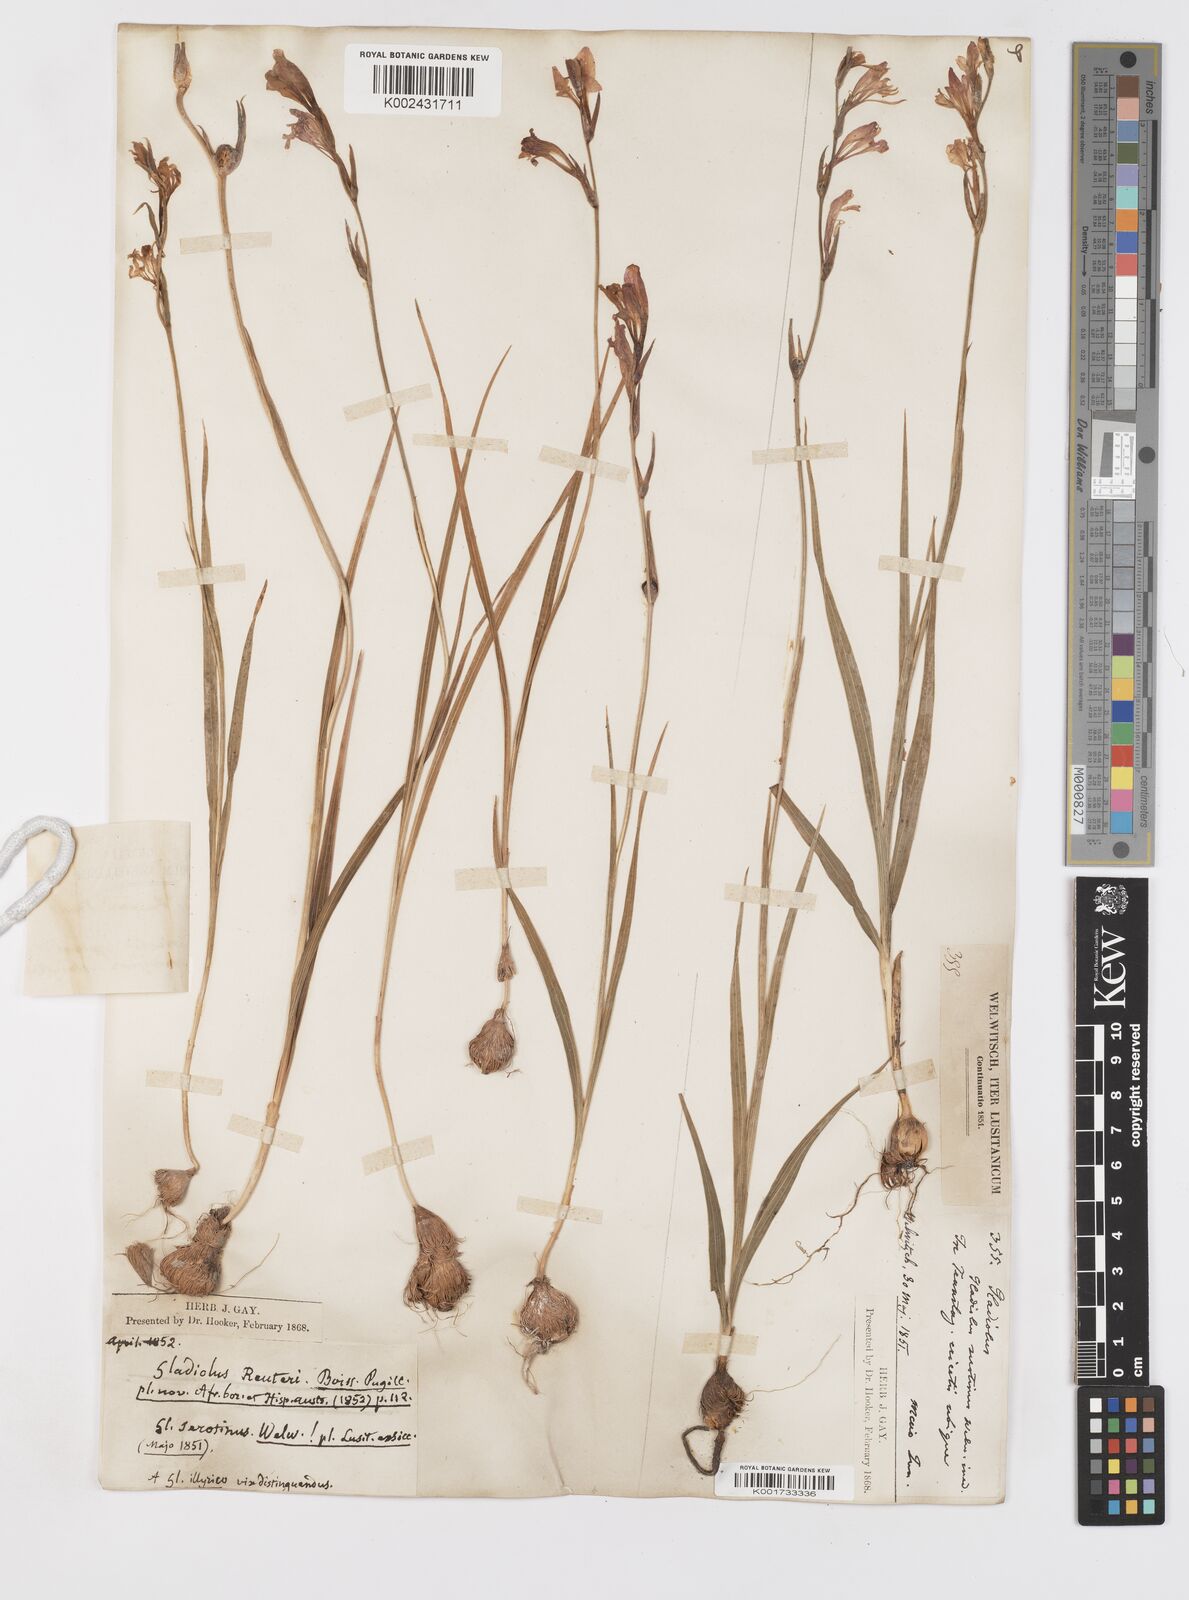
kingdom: Plantae
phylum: Tracheophyta
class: Liliopsida
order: Asparagales
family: Iridaceae
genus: Gladiolus
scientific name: Gladiolus illyricus
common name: Wild gladiolus
